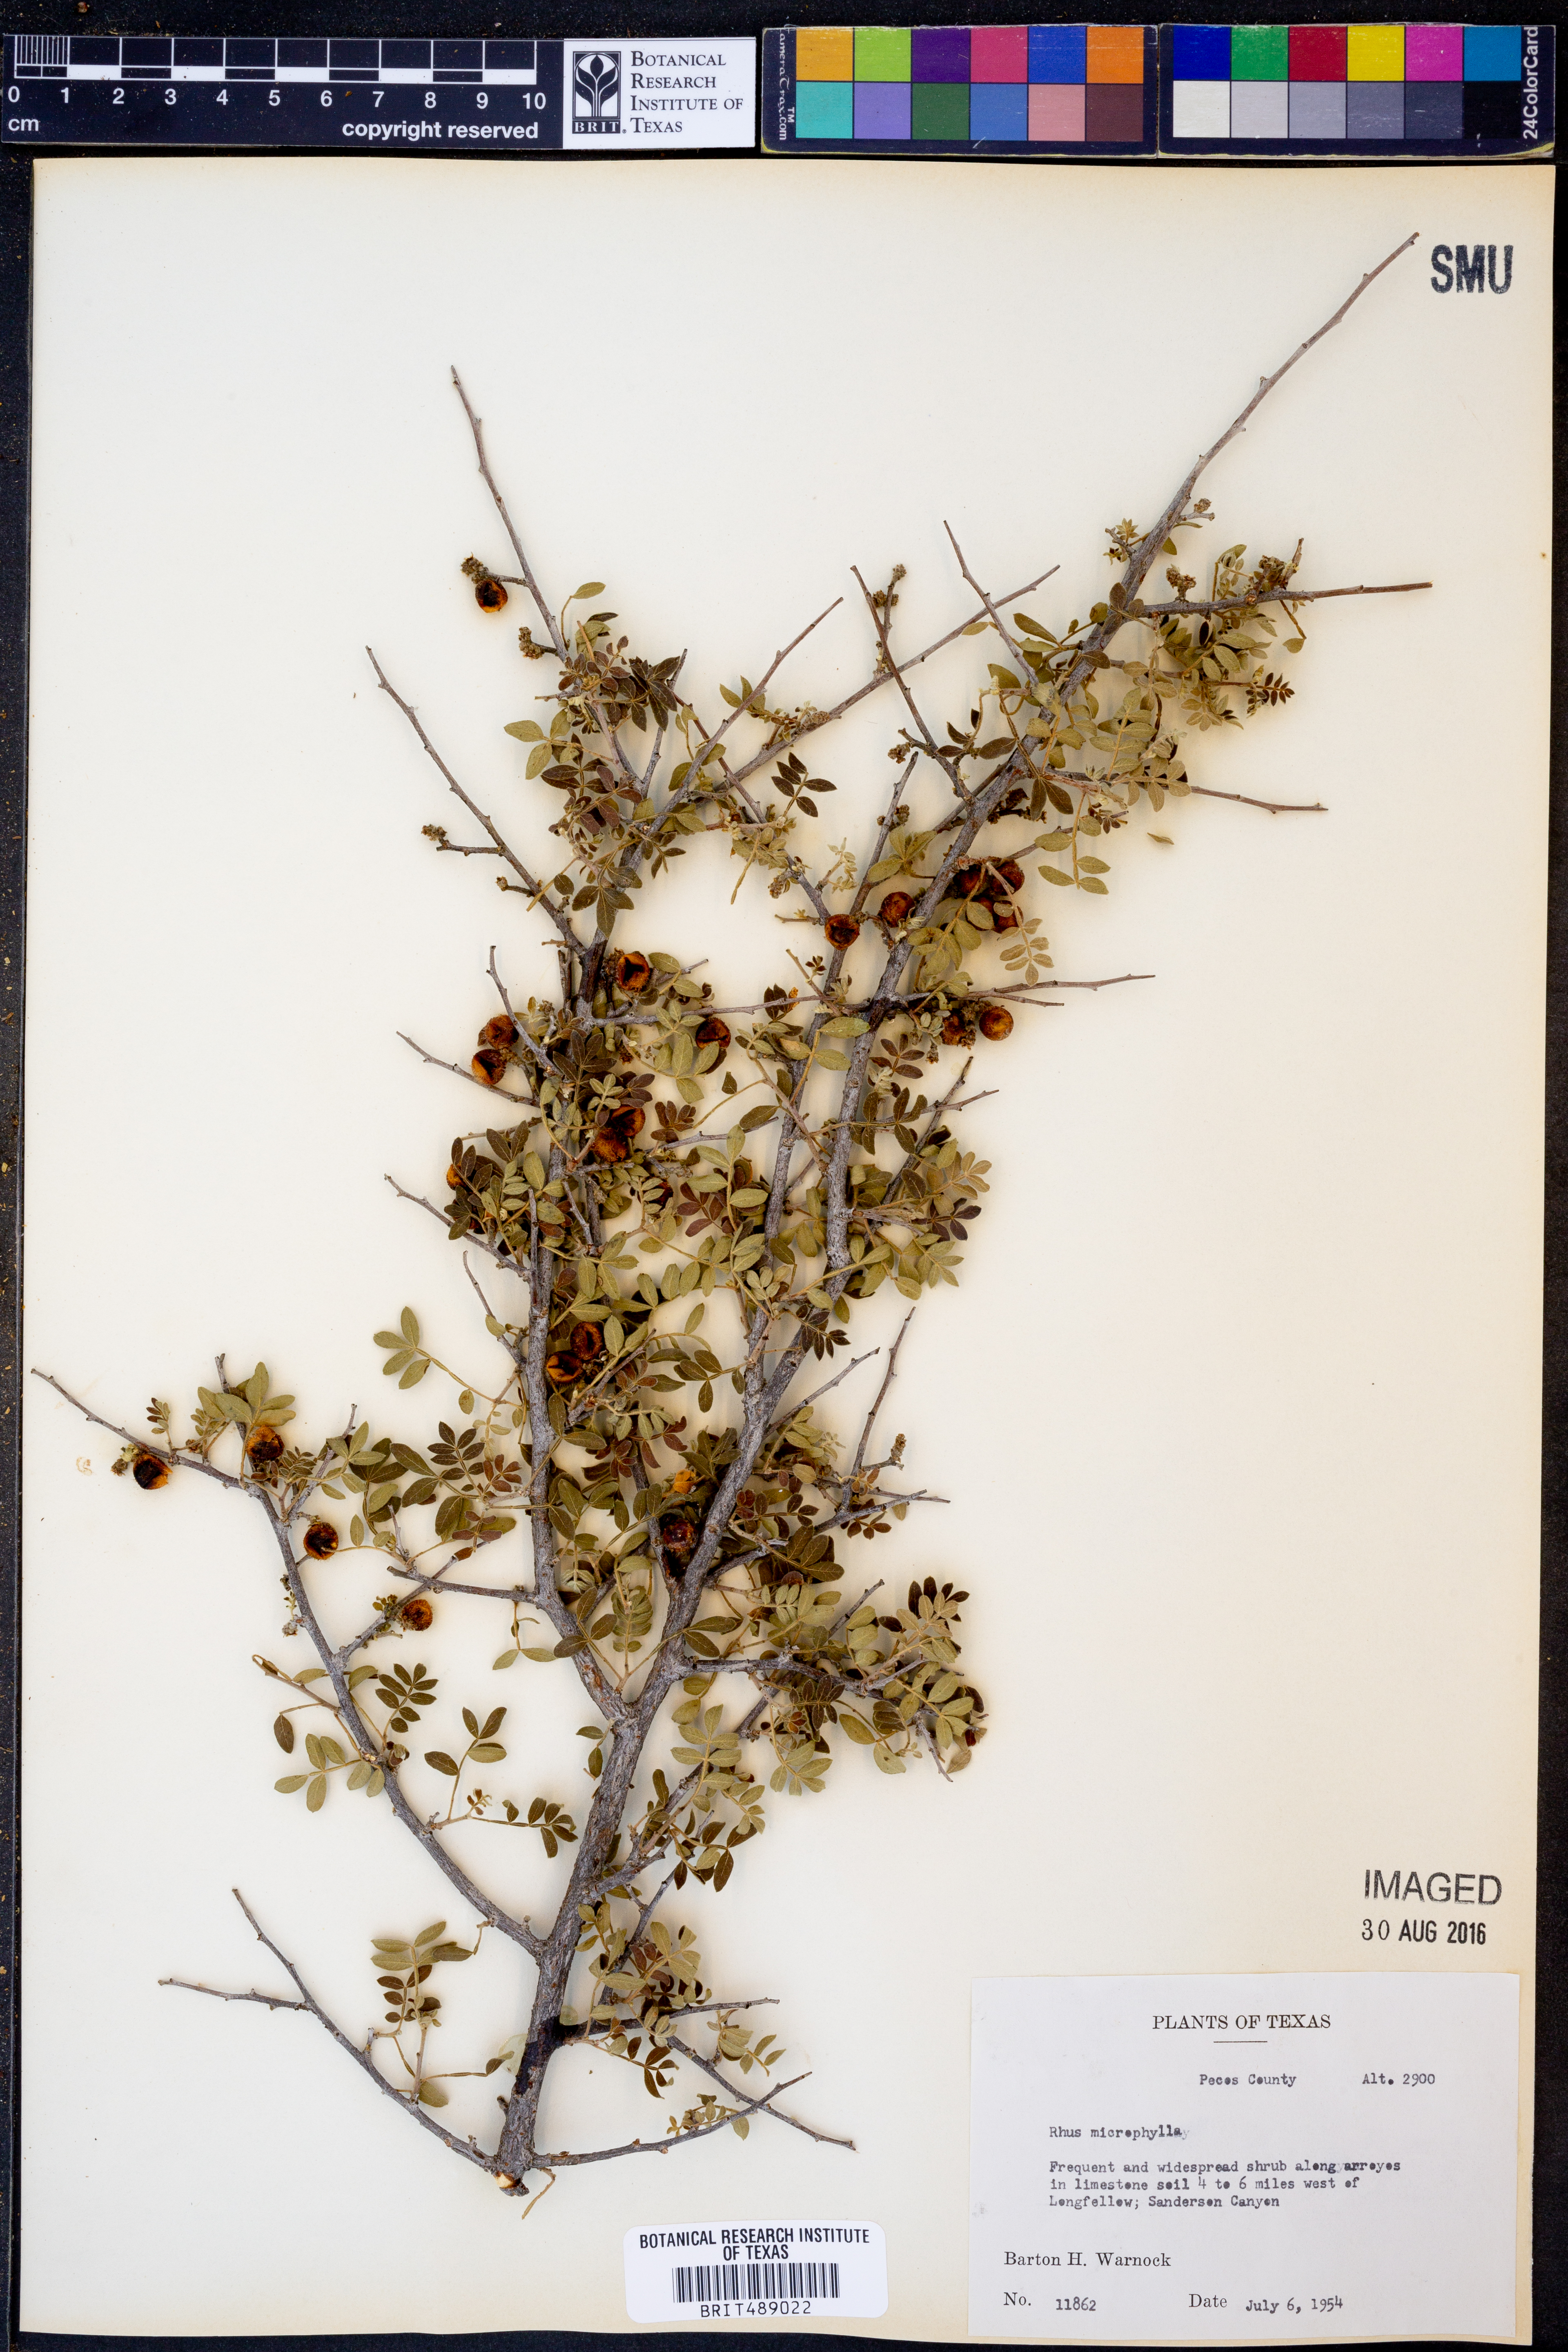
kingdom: Plantae
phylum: Tracheophyta
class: Magnoliopsida
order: Sapindales
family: Anacardiaceae
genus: Rhus
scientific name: Rhus microphylla
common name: Desert sumac
